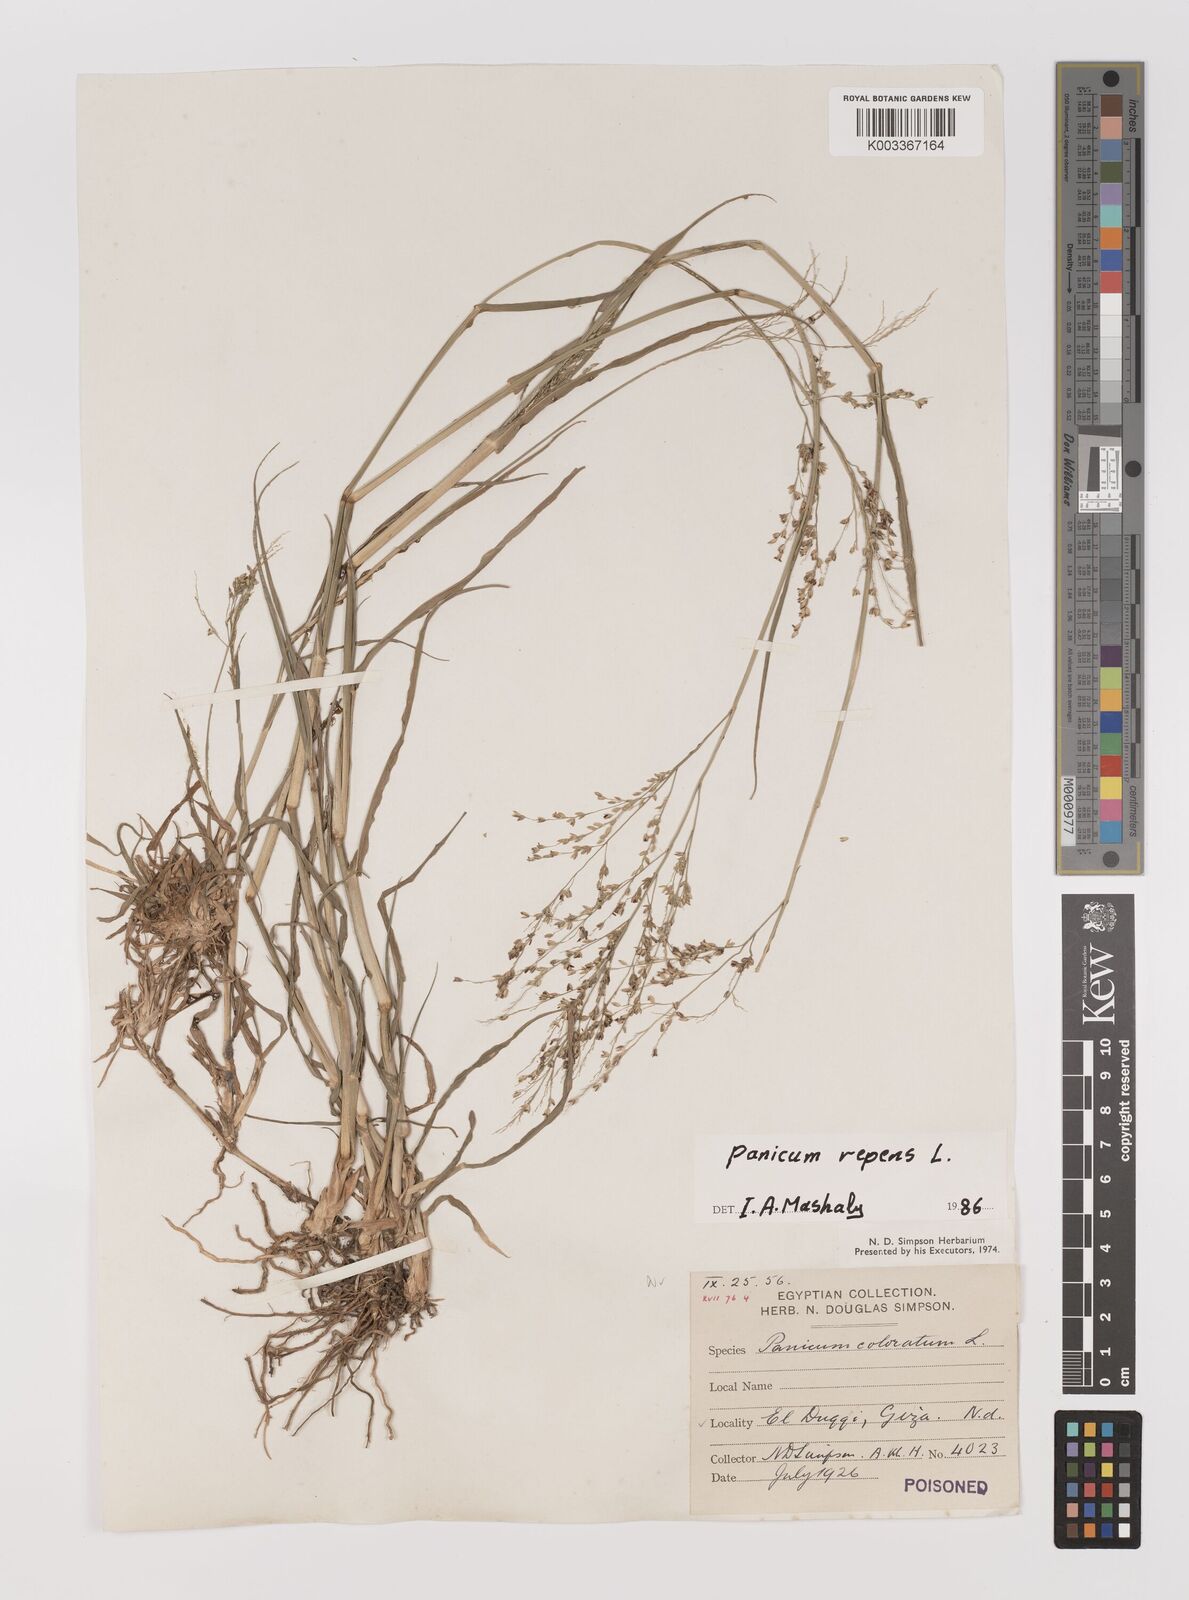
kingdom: Plantae
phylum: Tracheophyta
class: Liliopsida
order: Poales
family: Poaceae
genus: Panicum
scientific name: Panicum repens
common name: Torpedo grass
